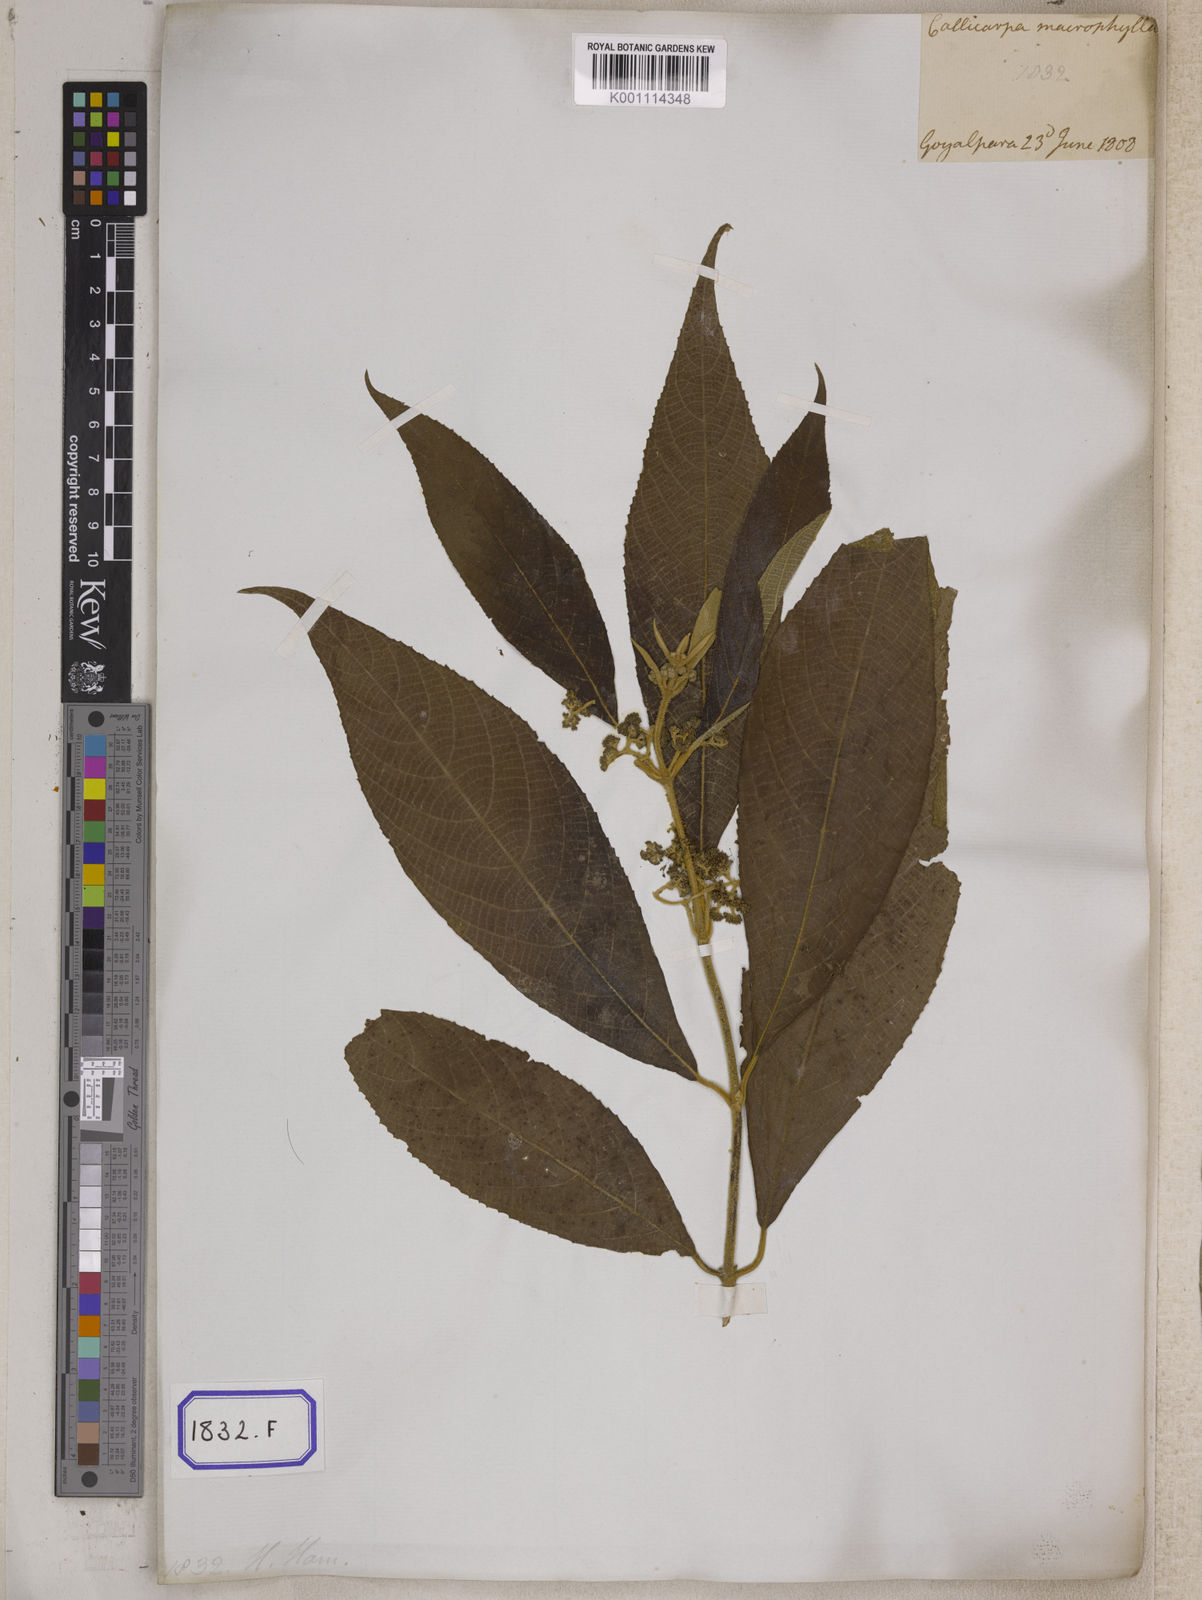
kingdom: Plantae
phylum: Tracheophyta
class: Magnoliopsida
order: Lamiales
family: Lamiaceae
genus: Callicarpa
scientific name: Callicarpa macrophylla
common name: Urn-fruit beauty-berry
